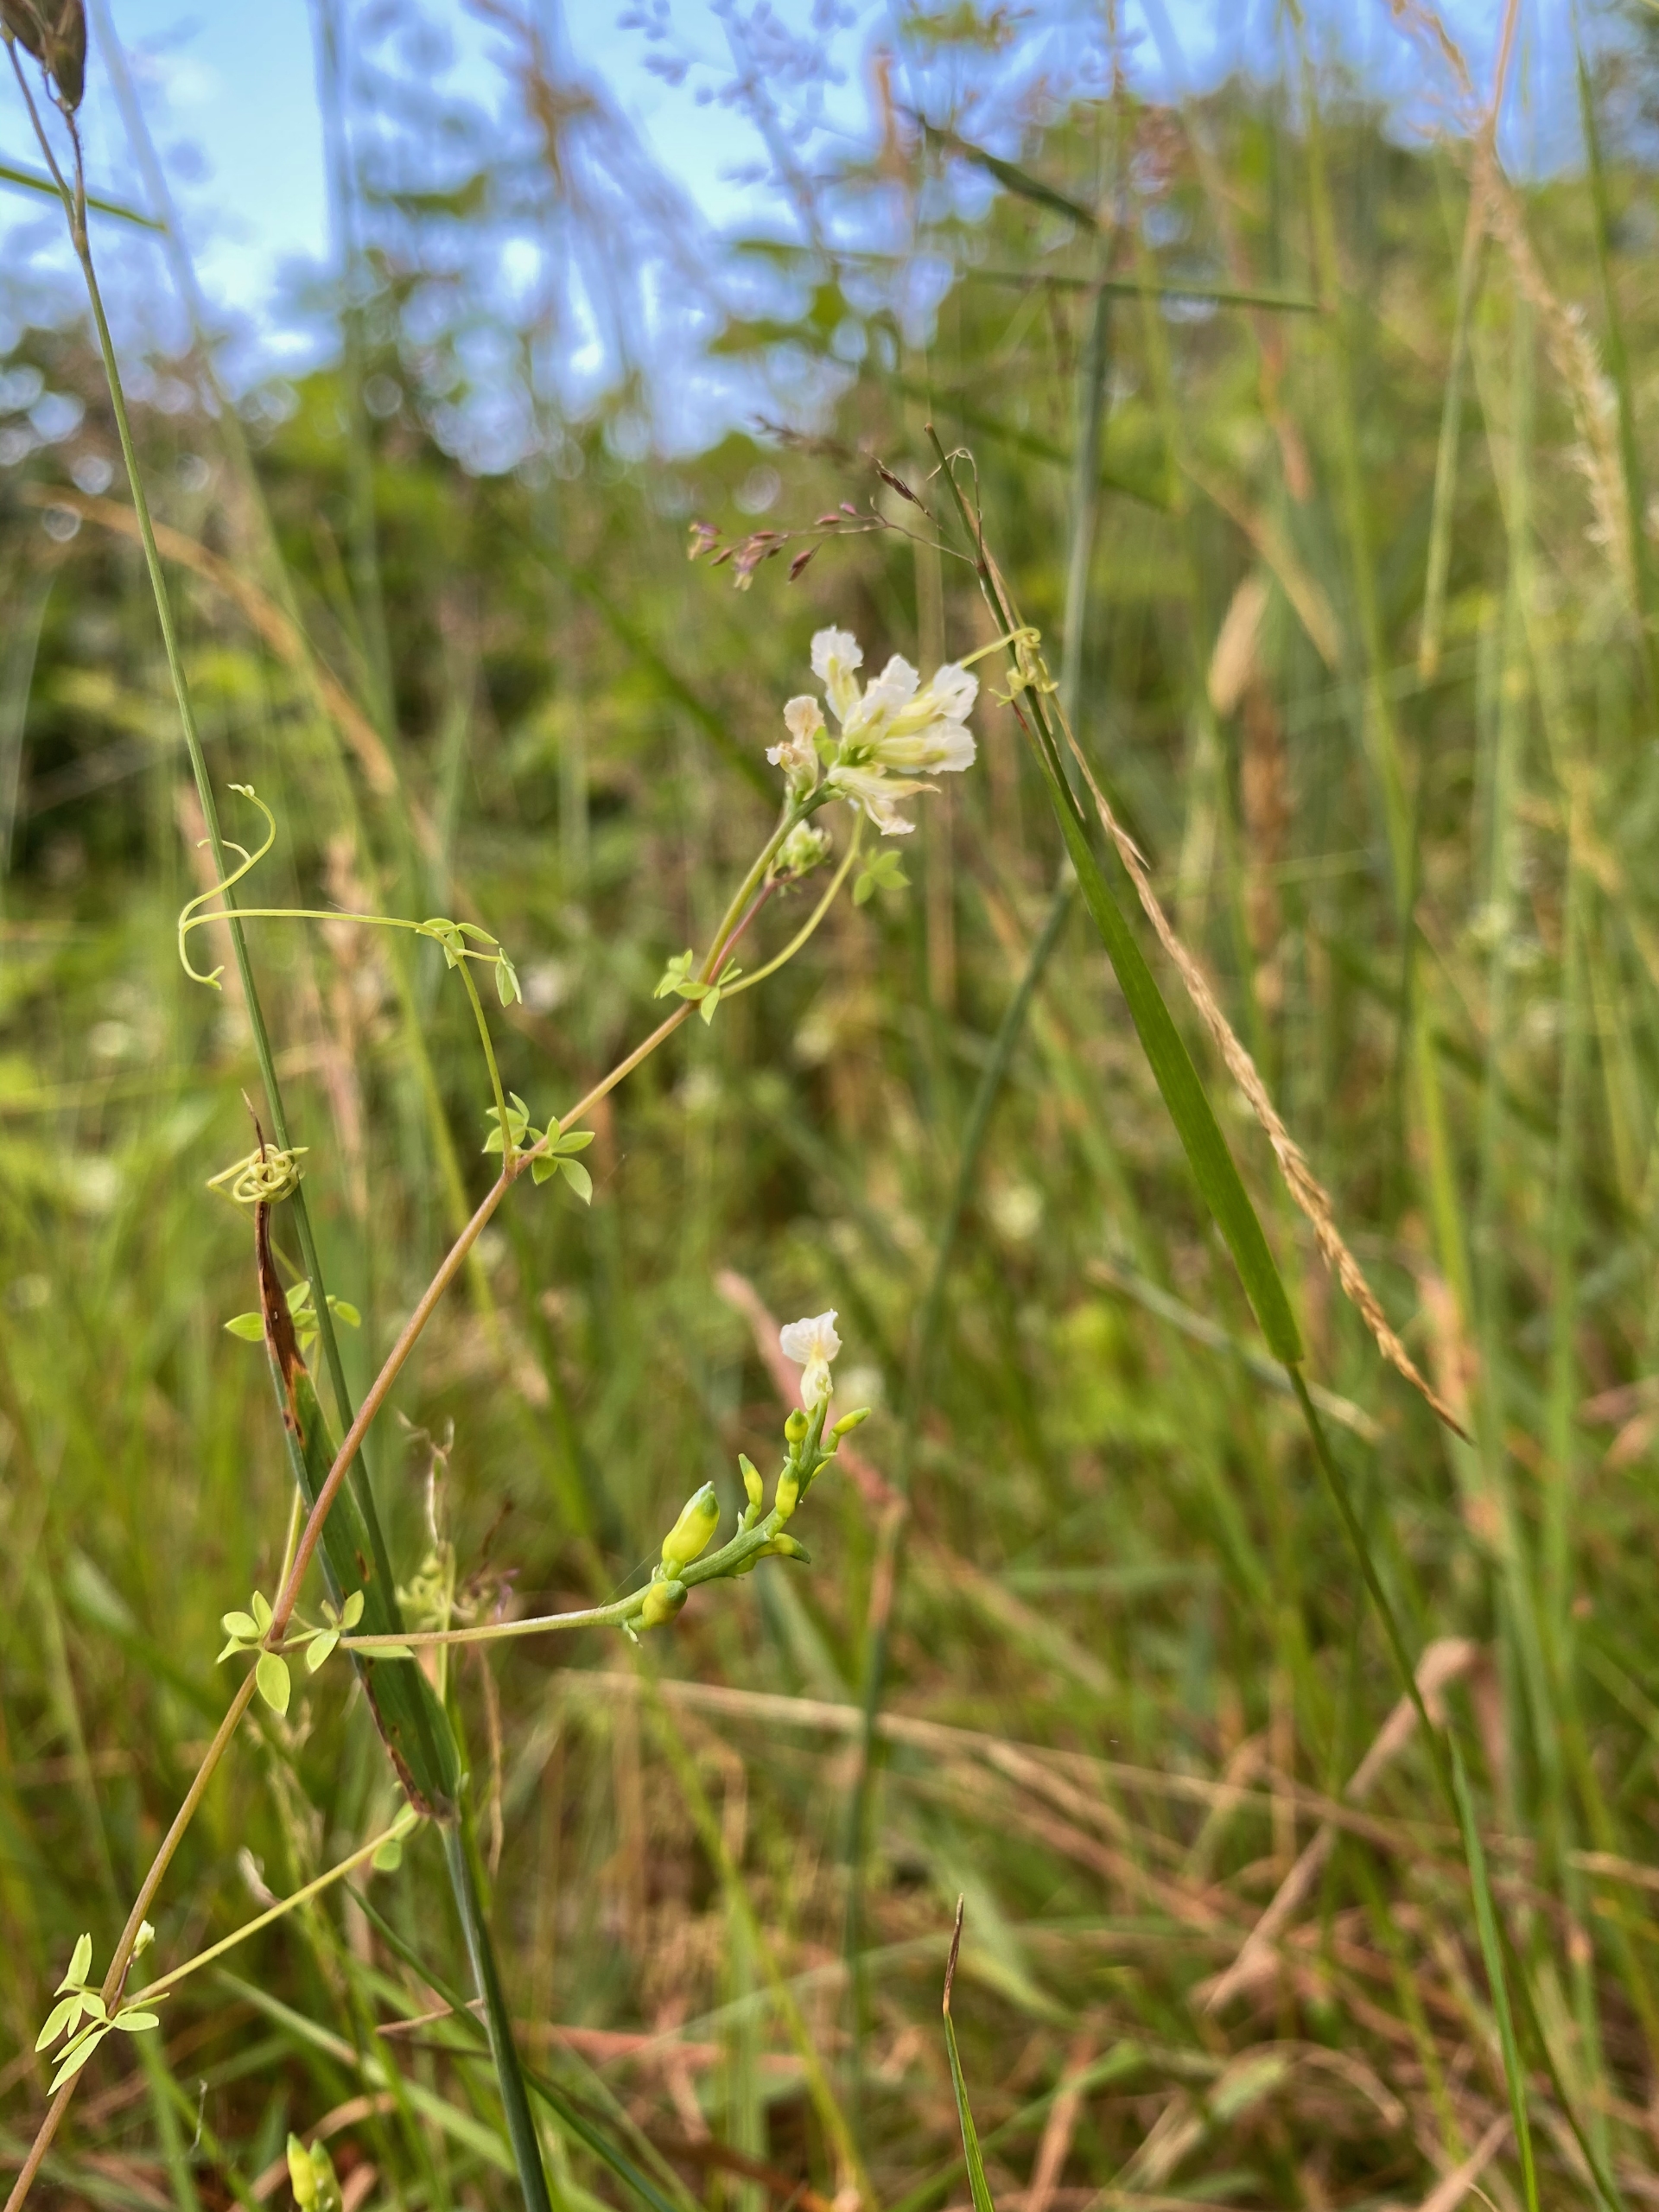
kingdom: Plantae
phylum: Tracheophyta
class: Magnoliopsida
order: Ranunculales
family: Papaveraceae
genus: Ceratocapnos
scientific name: Ceratocapnos claviculata
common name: Klatrende lærkespore
